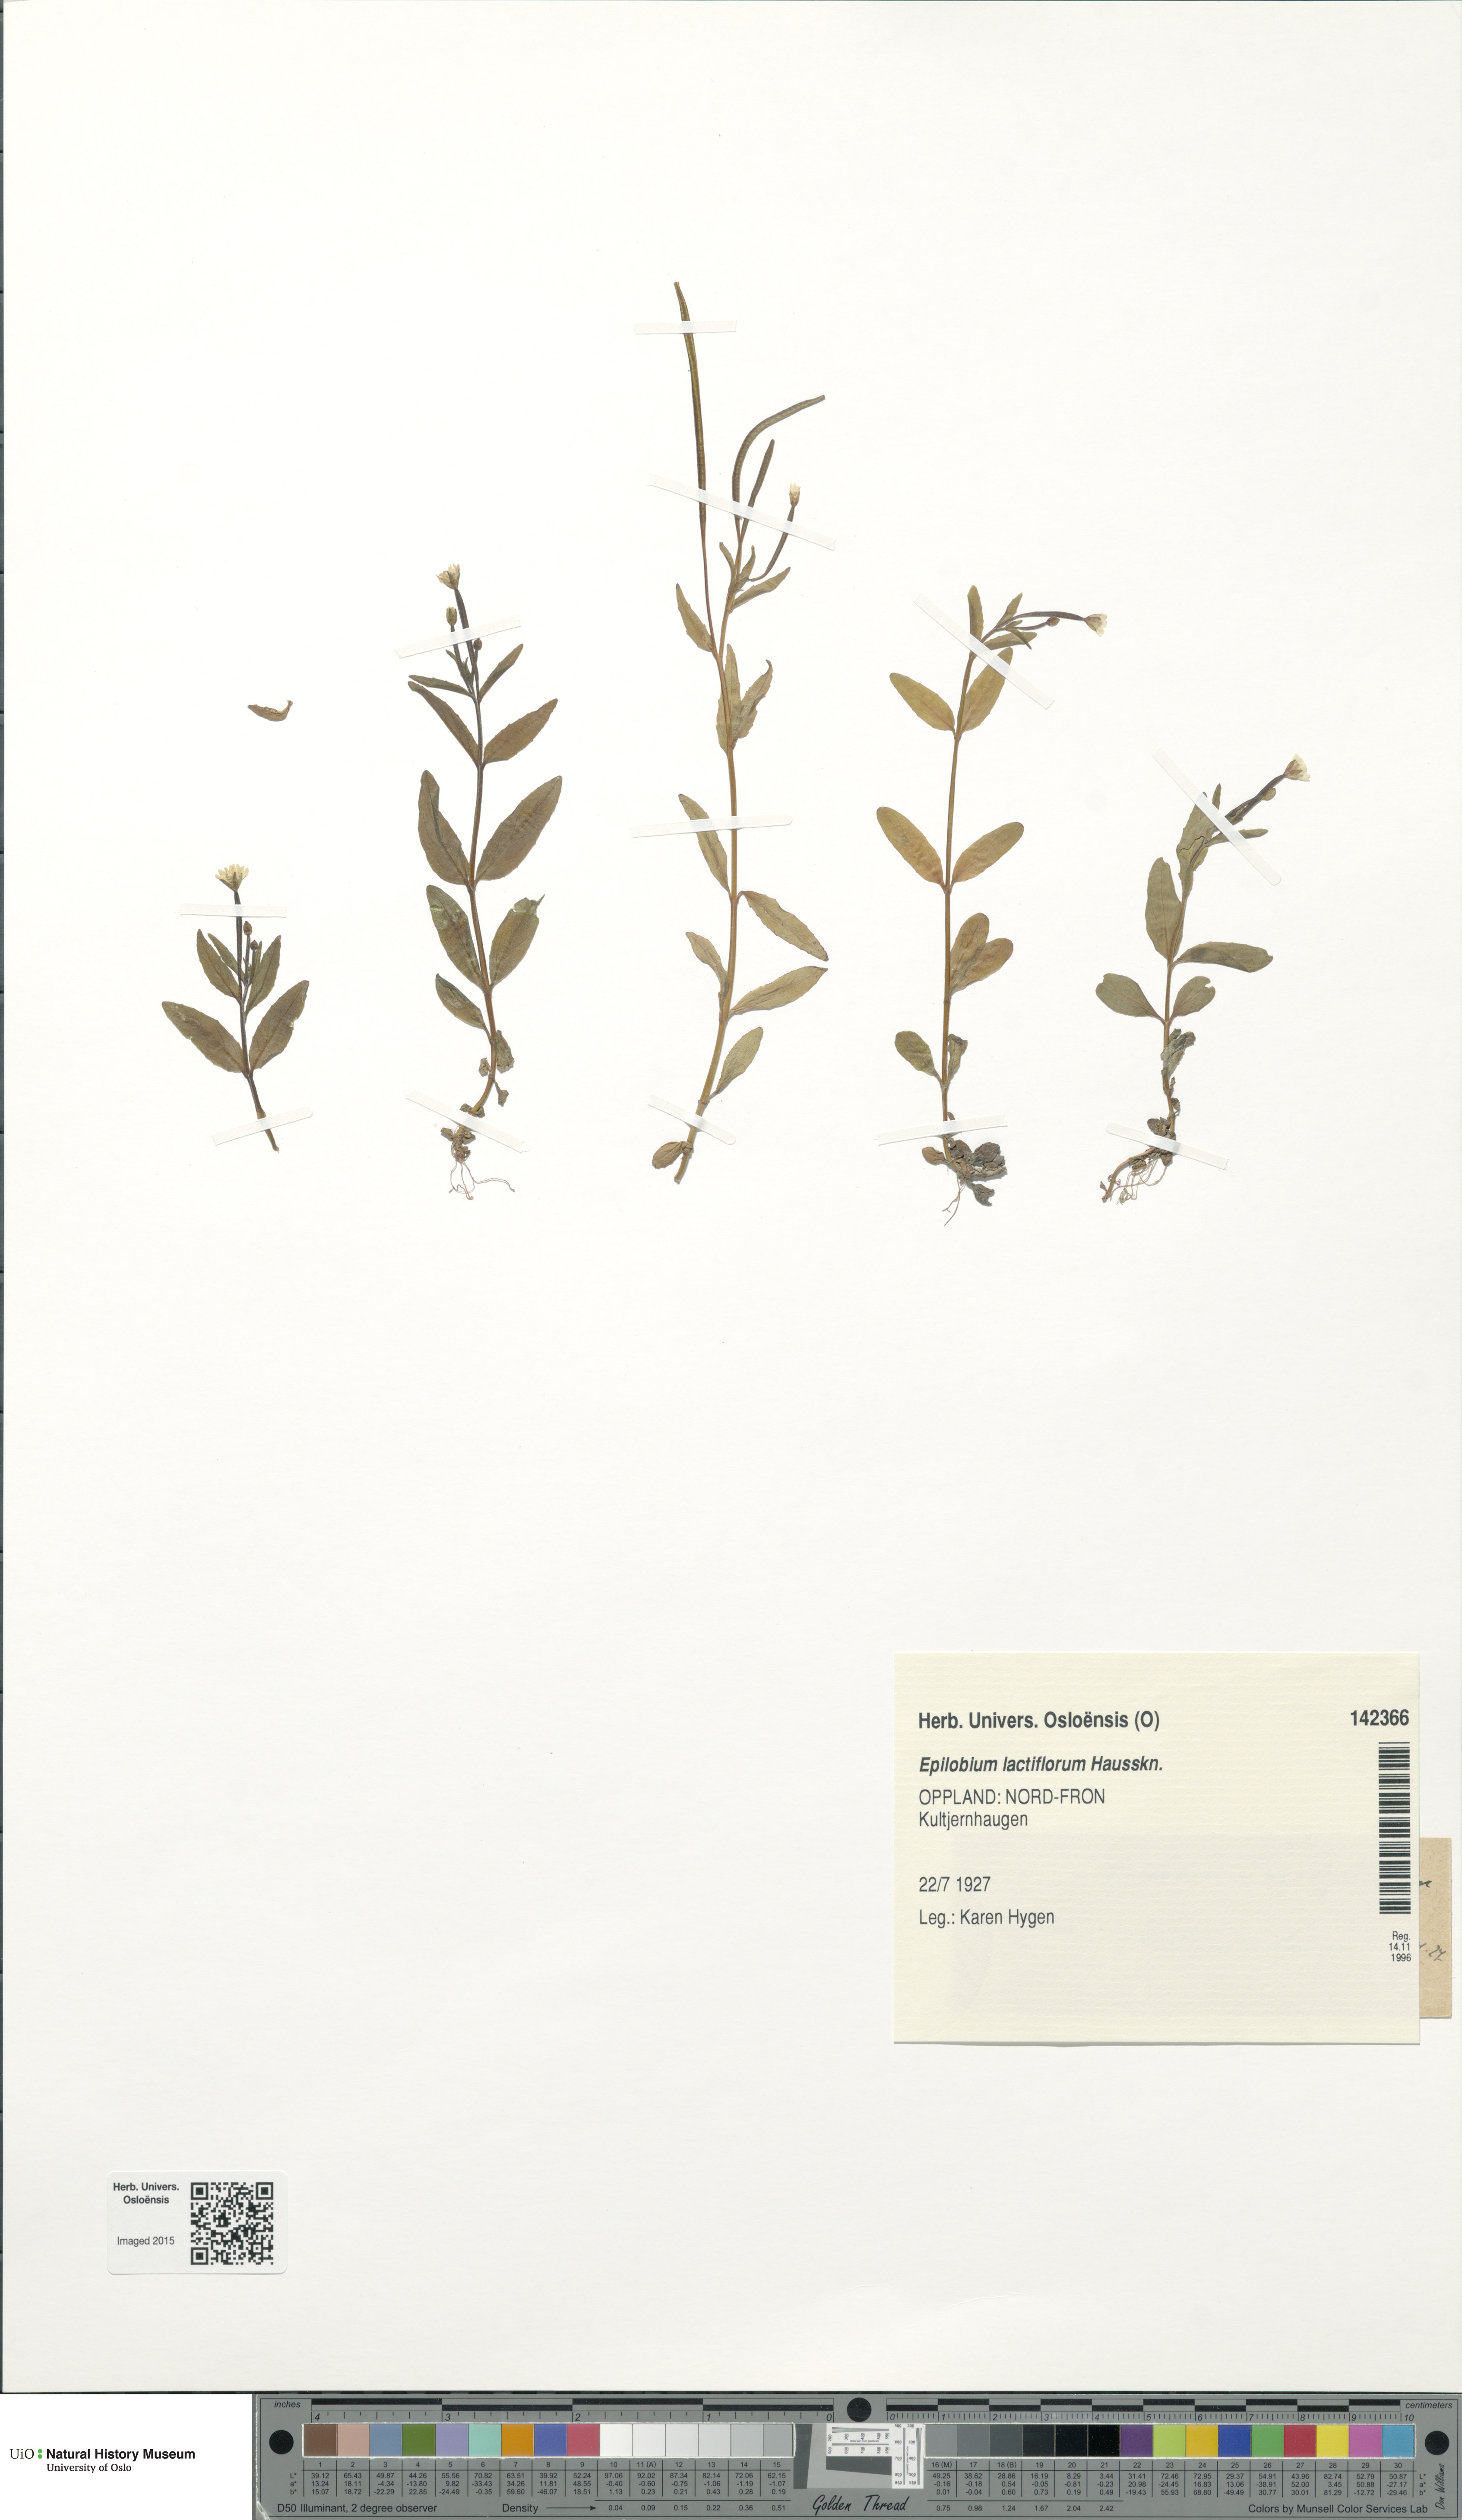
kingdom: Plantae
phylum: Tracheophyta
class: Magnoliopsida
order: Myrtales
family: Onagraceae
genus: Epilobium
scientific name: Epilobium lactiflorum
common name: Milkflower willowherb
